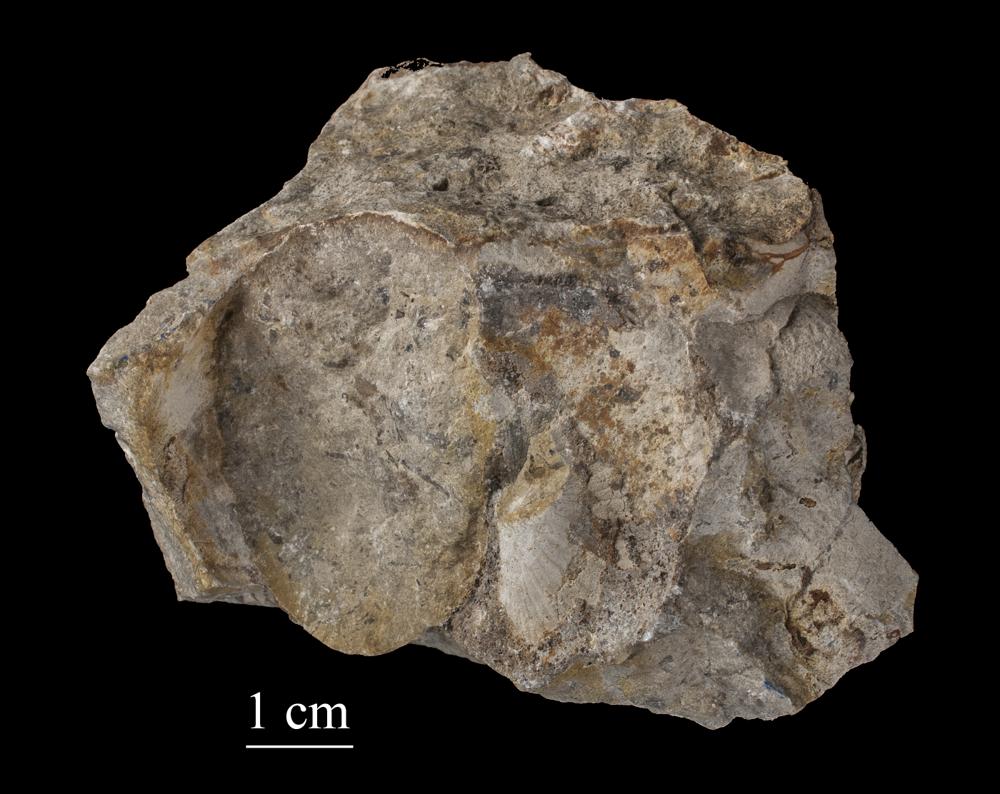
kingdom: Animalia
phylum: Mollusca
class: Gastropoda
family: Holopeidae
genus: Holopea
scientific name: Holopea ampullacea
